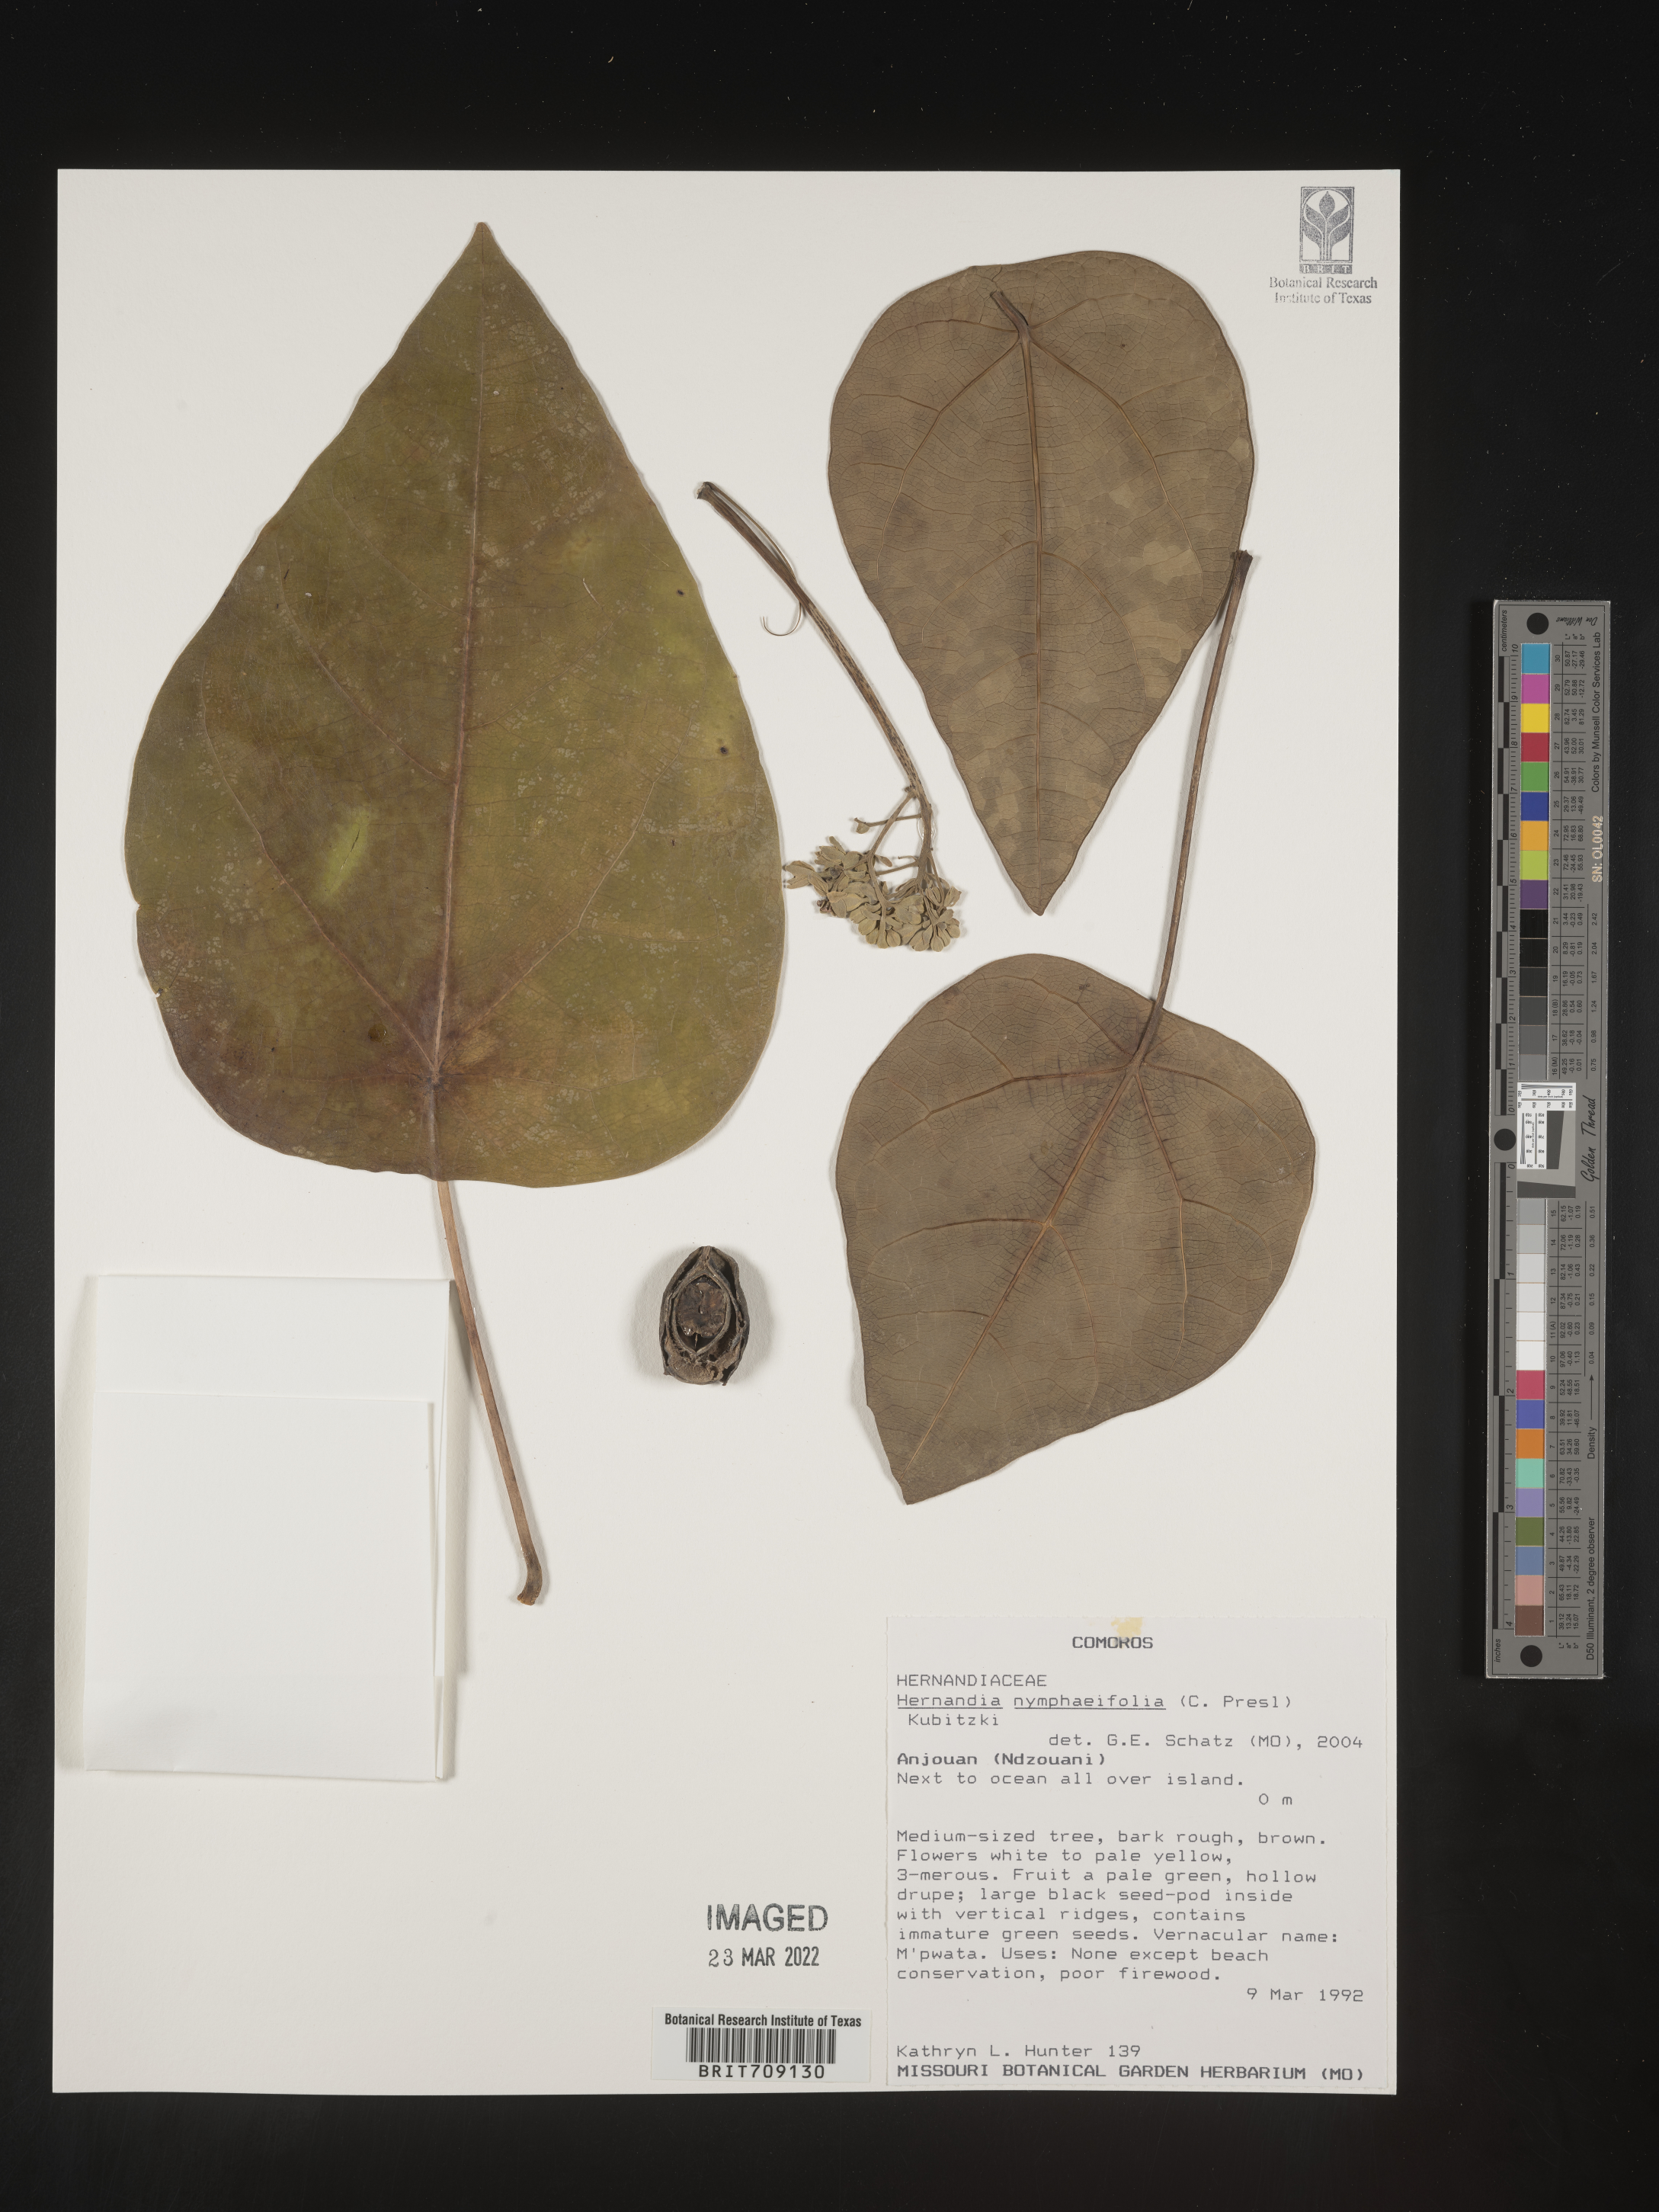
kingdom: Plantae
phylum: Tracheophyta
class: Magnoliopsida
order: Laurales
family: Hernandiaceae
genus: Hernandia
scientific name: Hernandia
